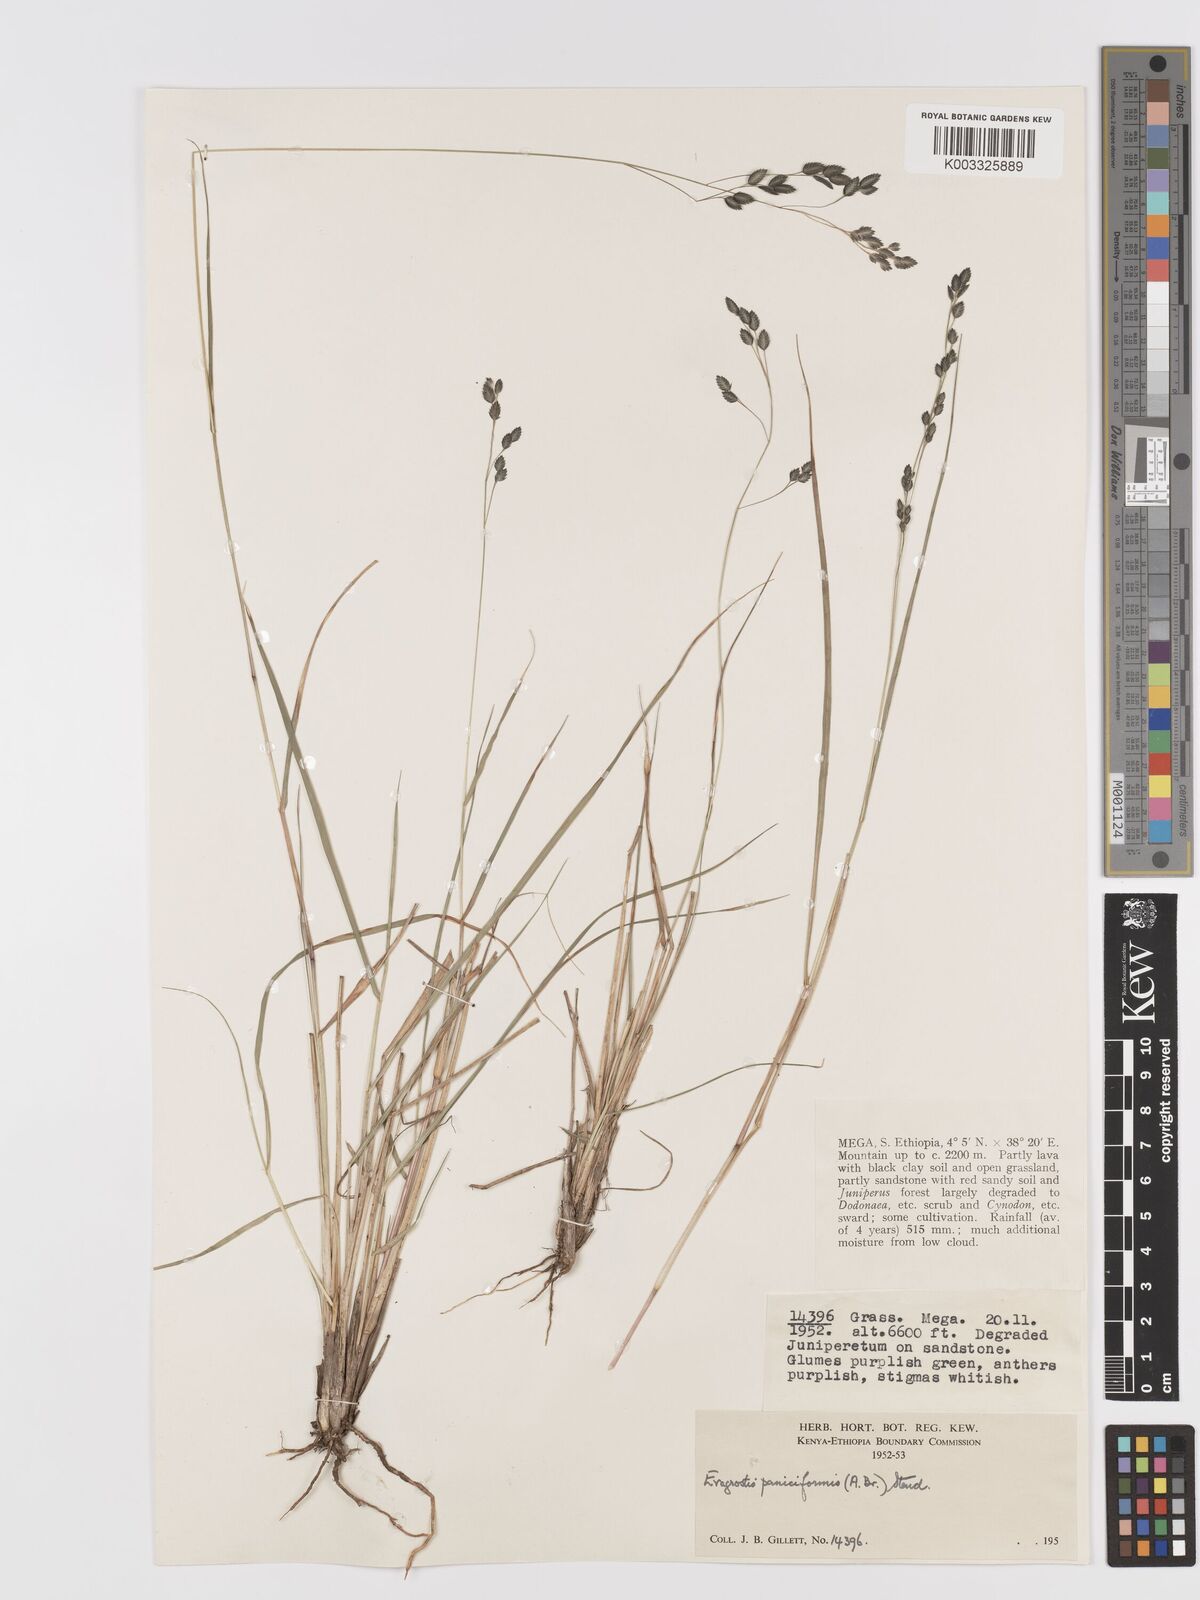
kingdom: Plantae
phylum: Tracheophyta
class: Liliopsida
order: Poales
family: Poaceae
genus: Eragrostis
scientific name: Eragrostis paniciformis
